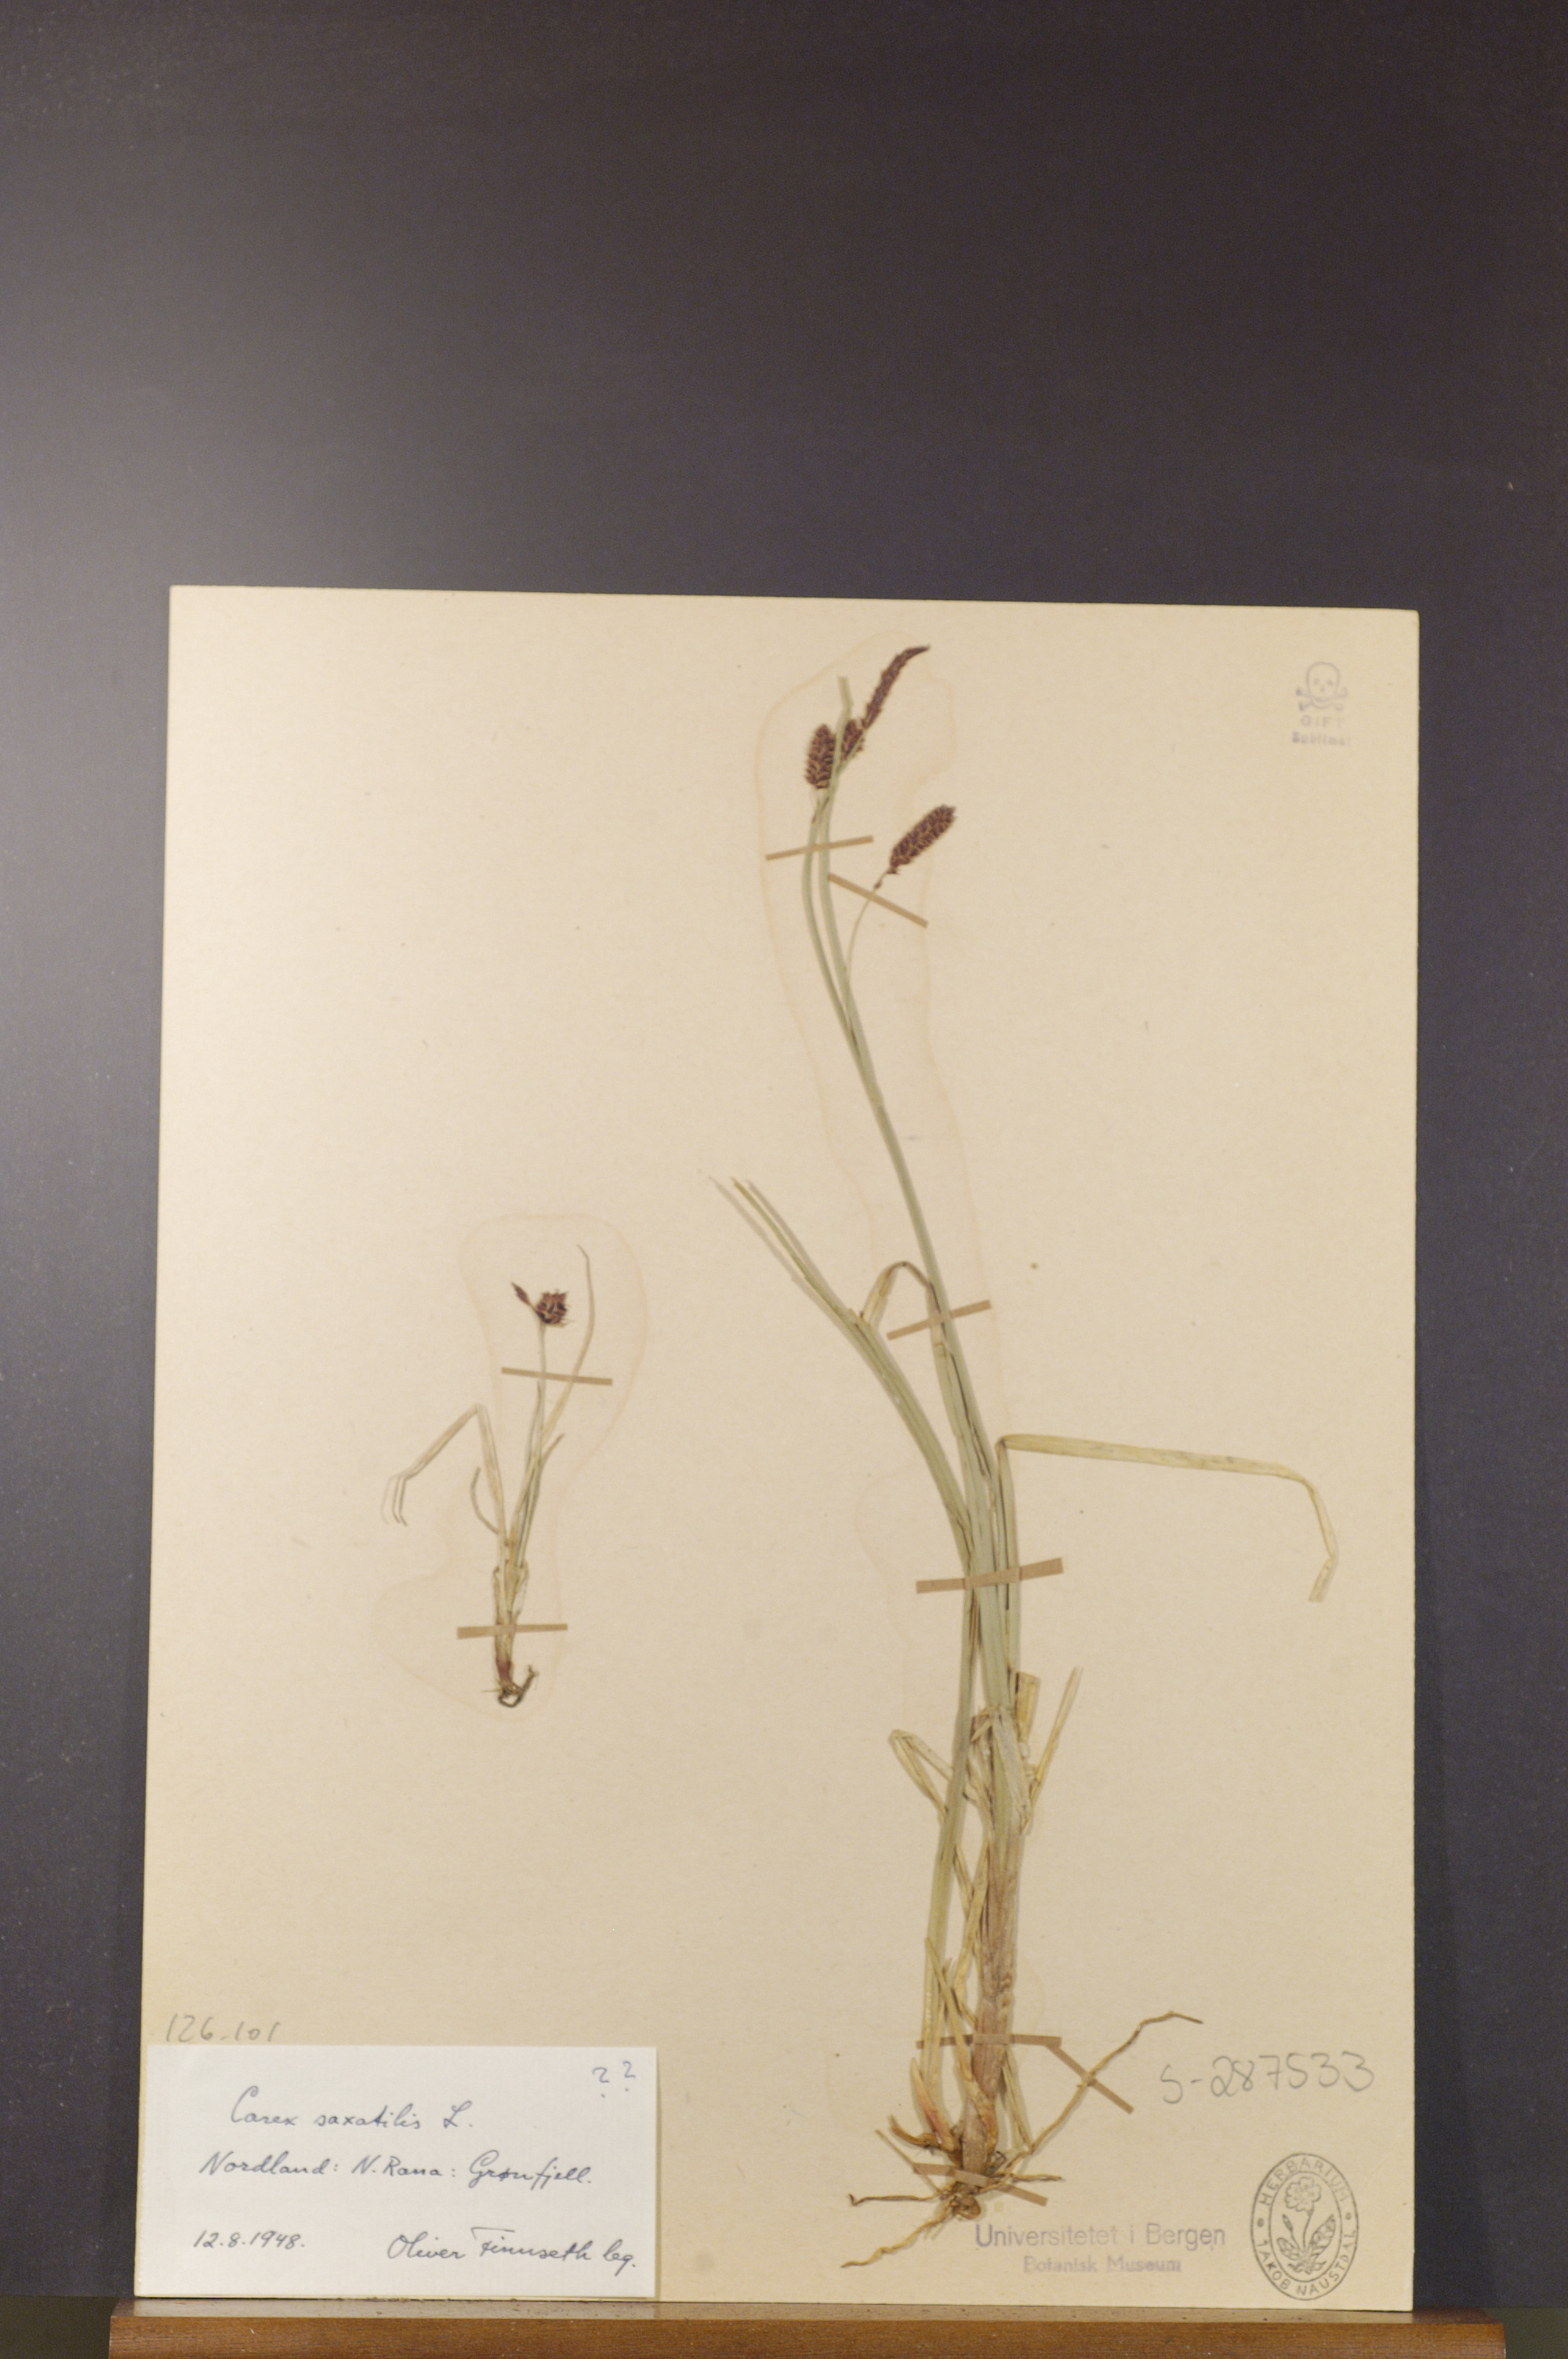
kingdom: Plantae
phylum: Tracheophyta
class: Liliopsida
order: Poales
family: Cyperaceae
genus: Carex
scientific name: Carex saxatilis
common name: Russet sedge
